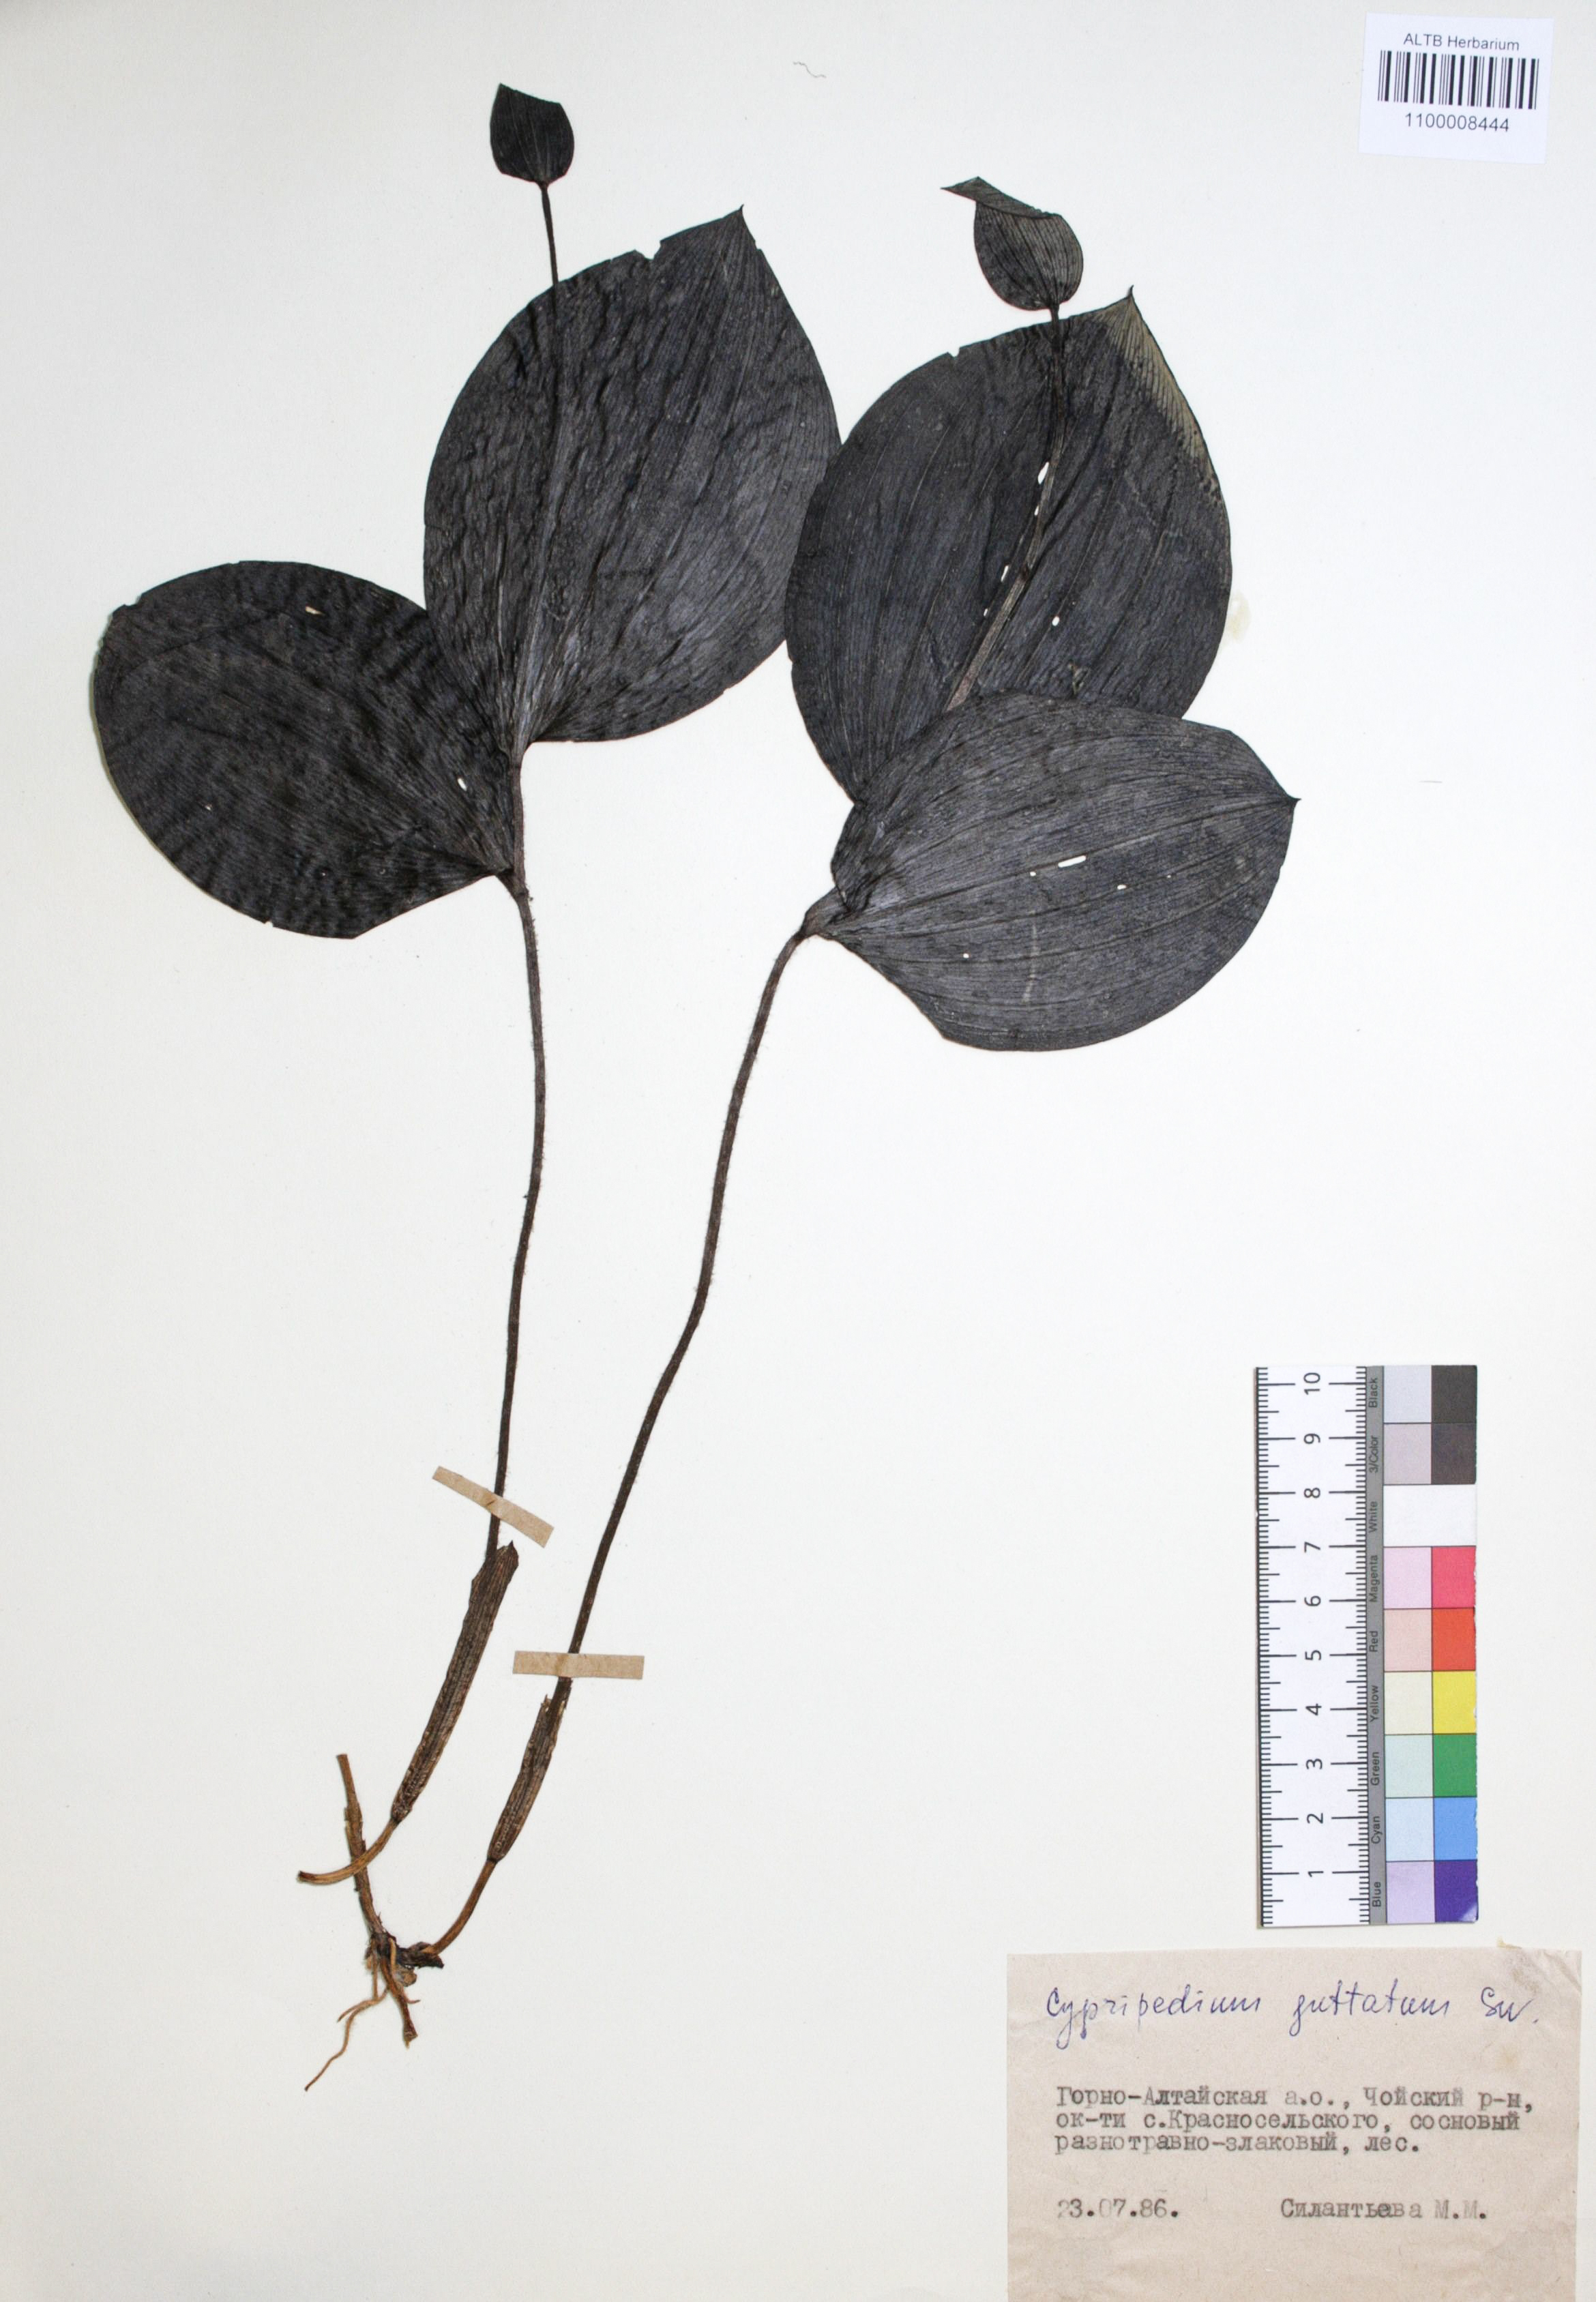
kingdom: Plantae
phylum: Tracheophyta
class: Liliopsida
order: Asparagales
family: Orchidaceae
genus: Cypripedium
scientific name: Cypripedium guttatum
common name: Pink lady slipper
